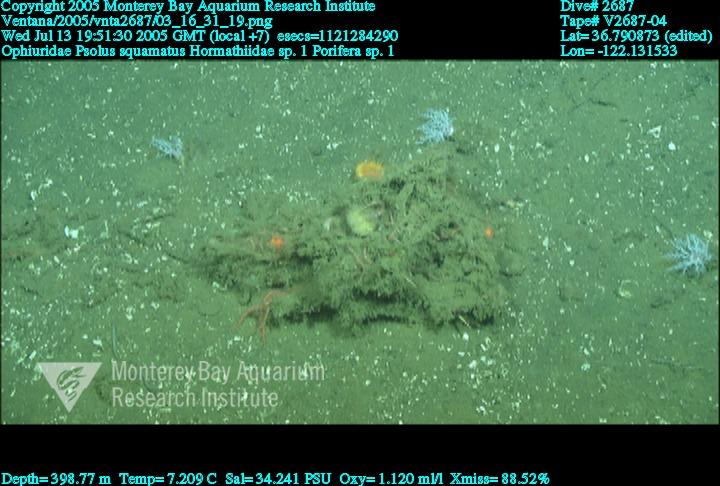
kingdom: Animalia
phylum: Porifera
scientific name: Porifera
